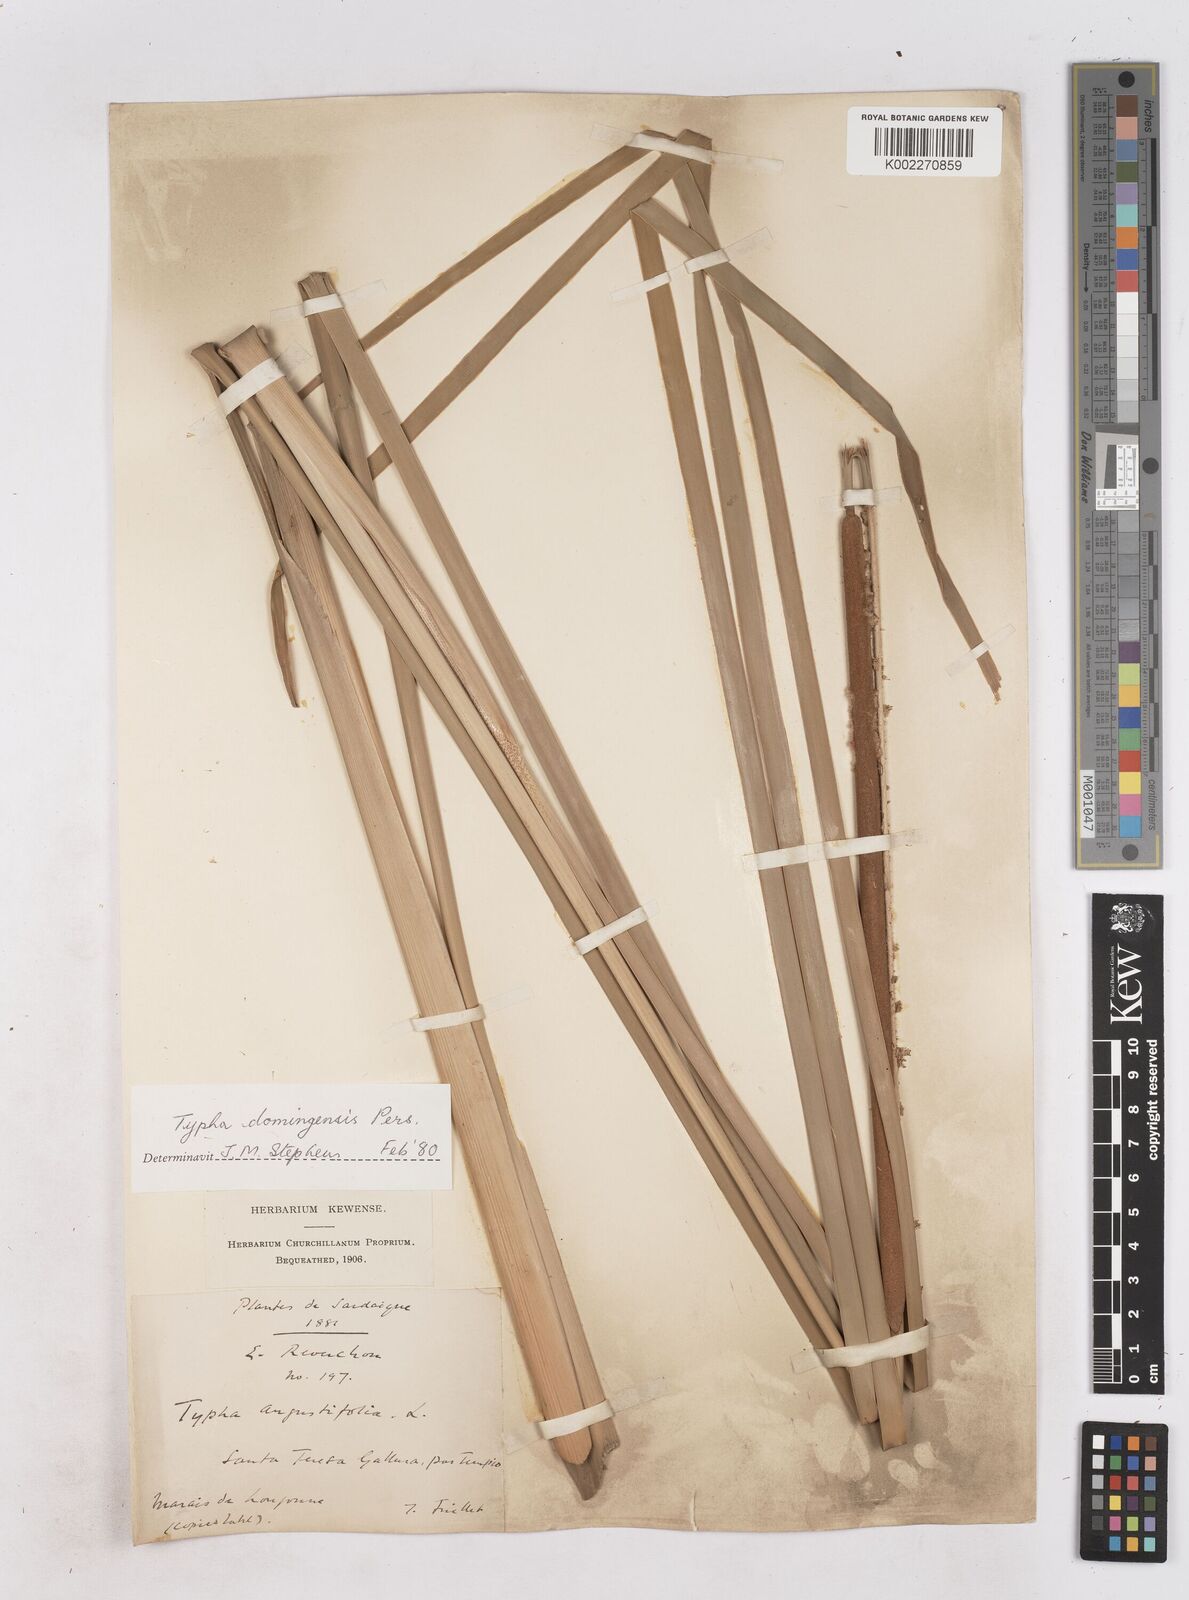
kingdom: Plantae
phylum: Tracheophyta
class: Liliopsida
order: Poales
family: Typhaceae
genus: Typha
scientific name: Typha domingensis
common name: Southern cattail
